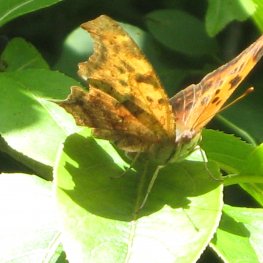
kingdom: Animalia
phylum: Arthropoda
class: Insecta
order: Lepidoptera
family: Nymphalidae
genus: Polygonia
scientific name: Polygonia interrogationis
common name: Question Mark
